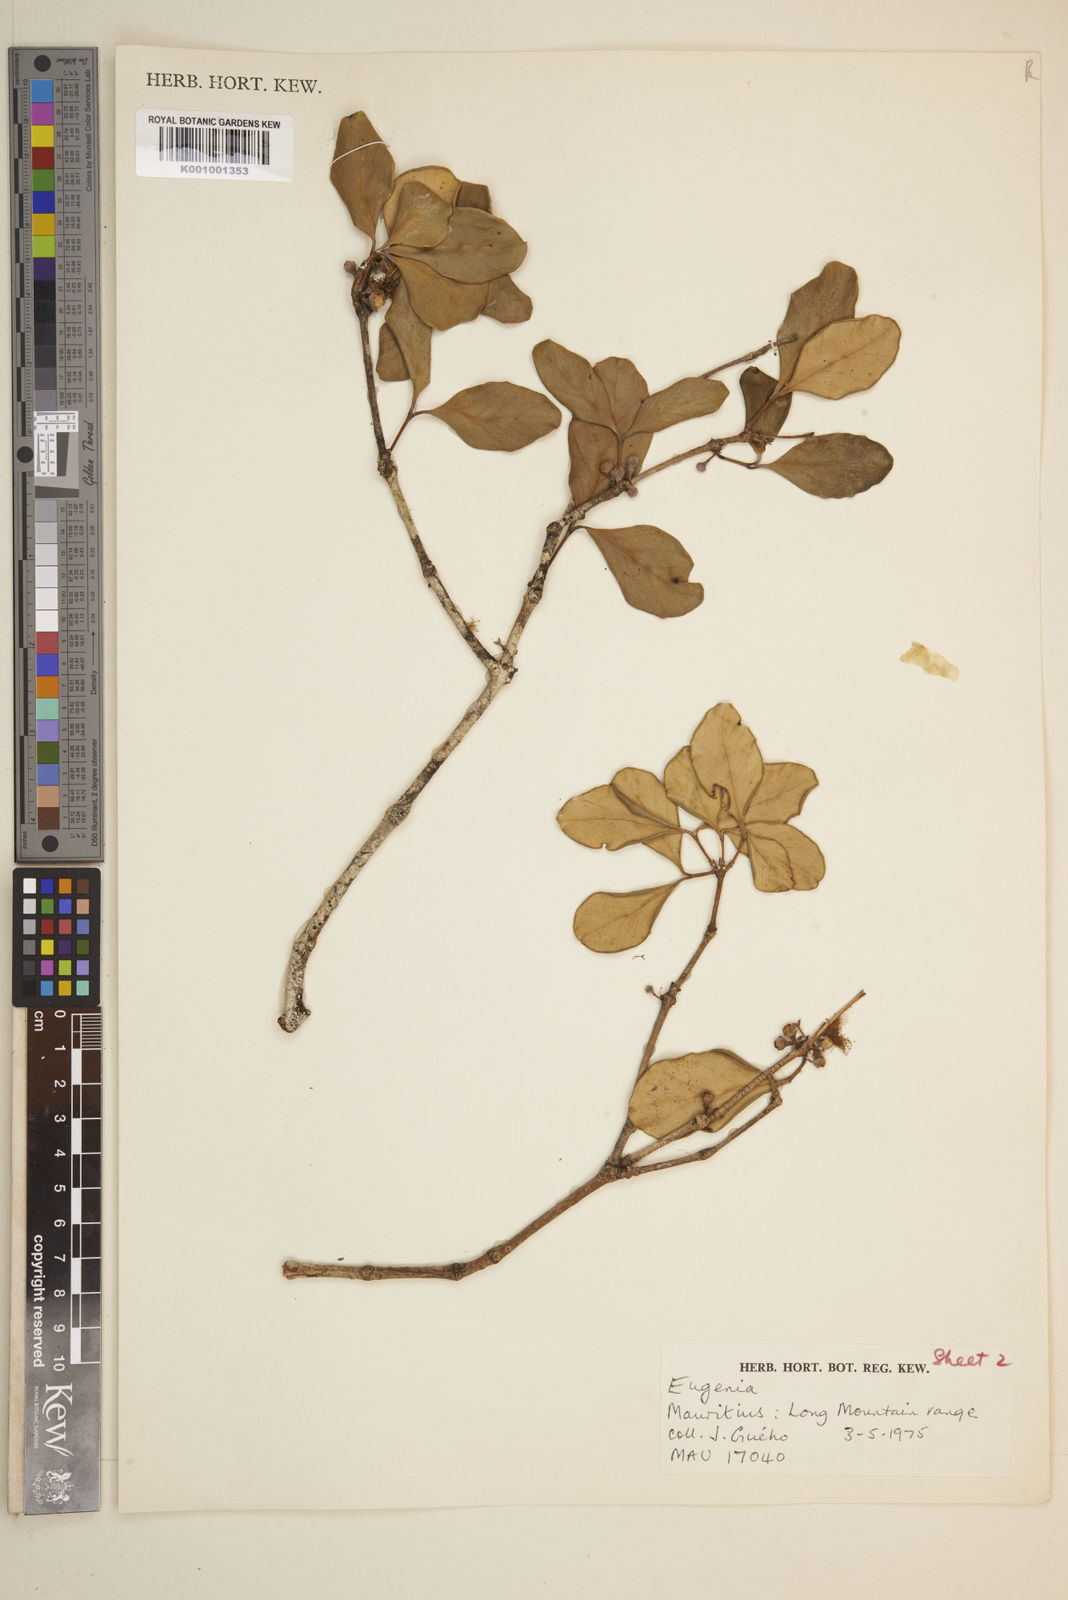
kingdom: Plantae
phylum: Tracheophyta
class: Magnoliopsida
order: Myrtales
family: Myrtaceae
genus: Eugenia
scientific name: Eugenia roxburghii
